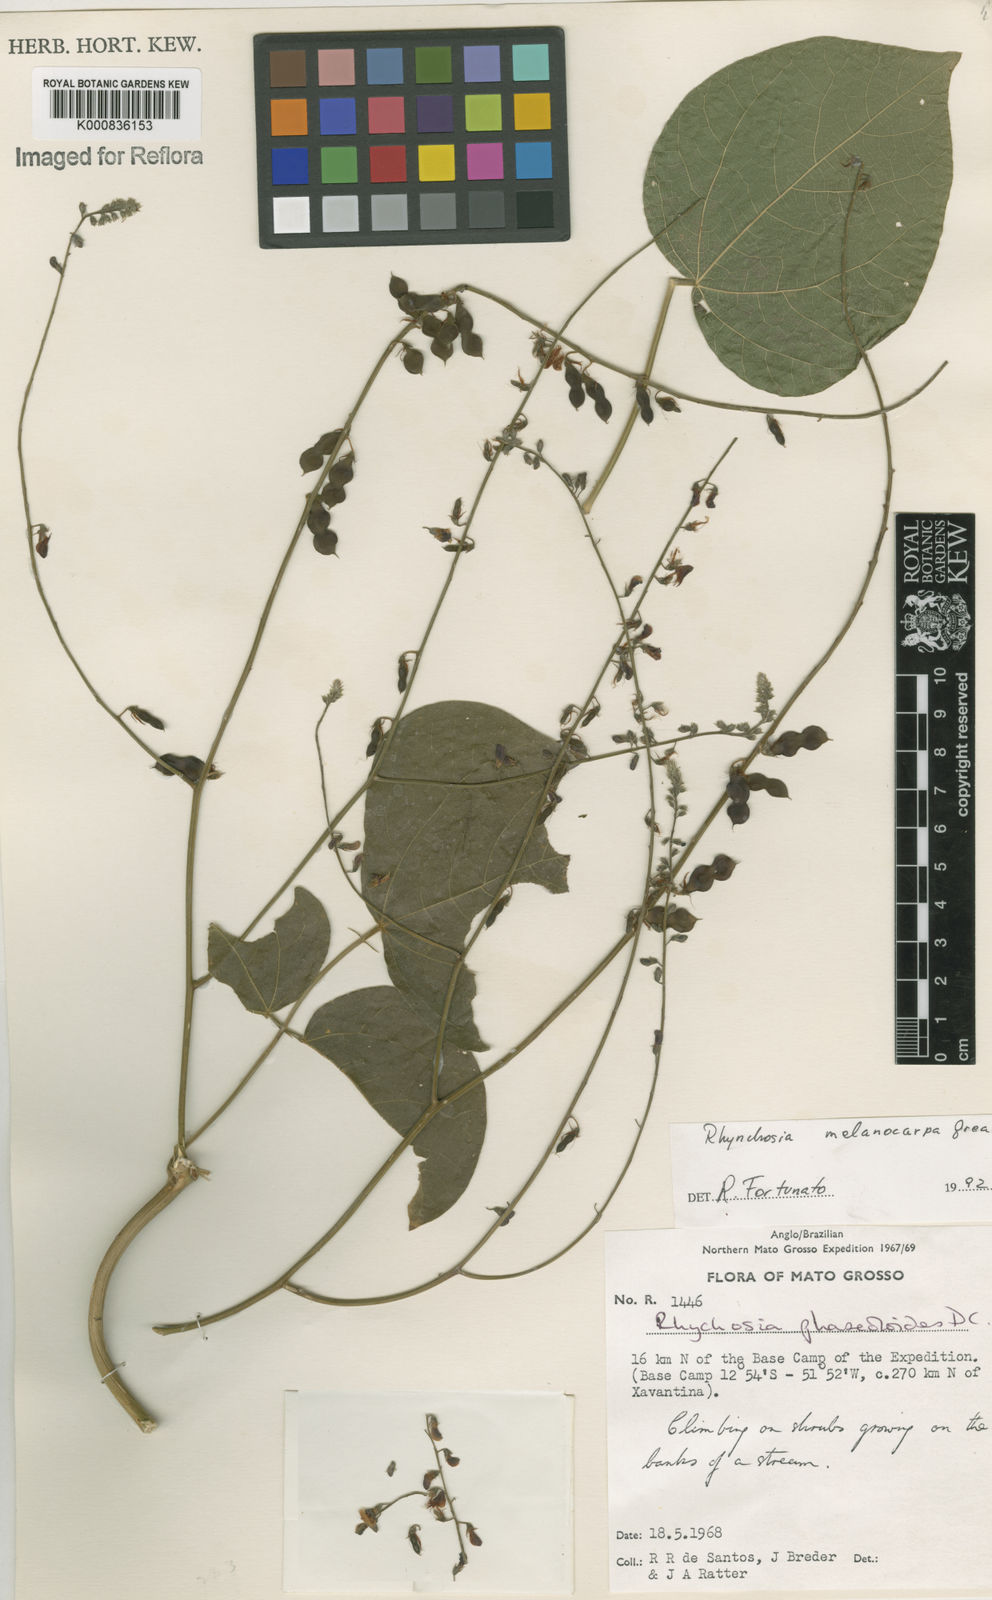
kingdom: Plantae
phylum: Tracheophyta
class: Magnoliopsida
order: Fabales
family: Fabaceae
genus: Rhynchosia
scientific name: Rhynchosia melanocarpa
